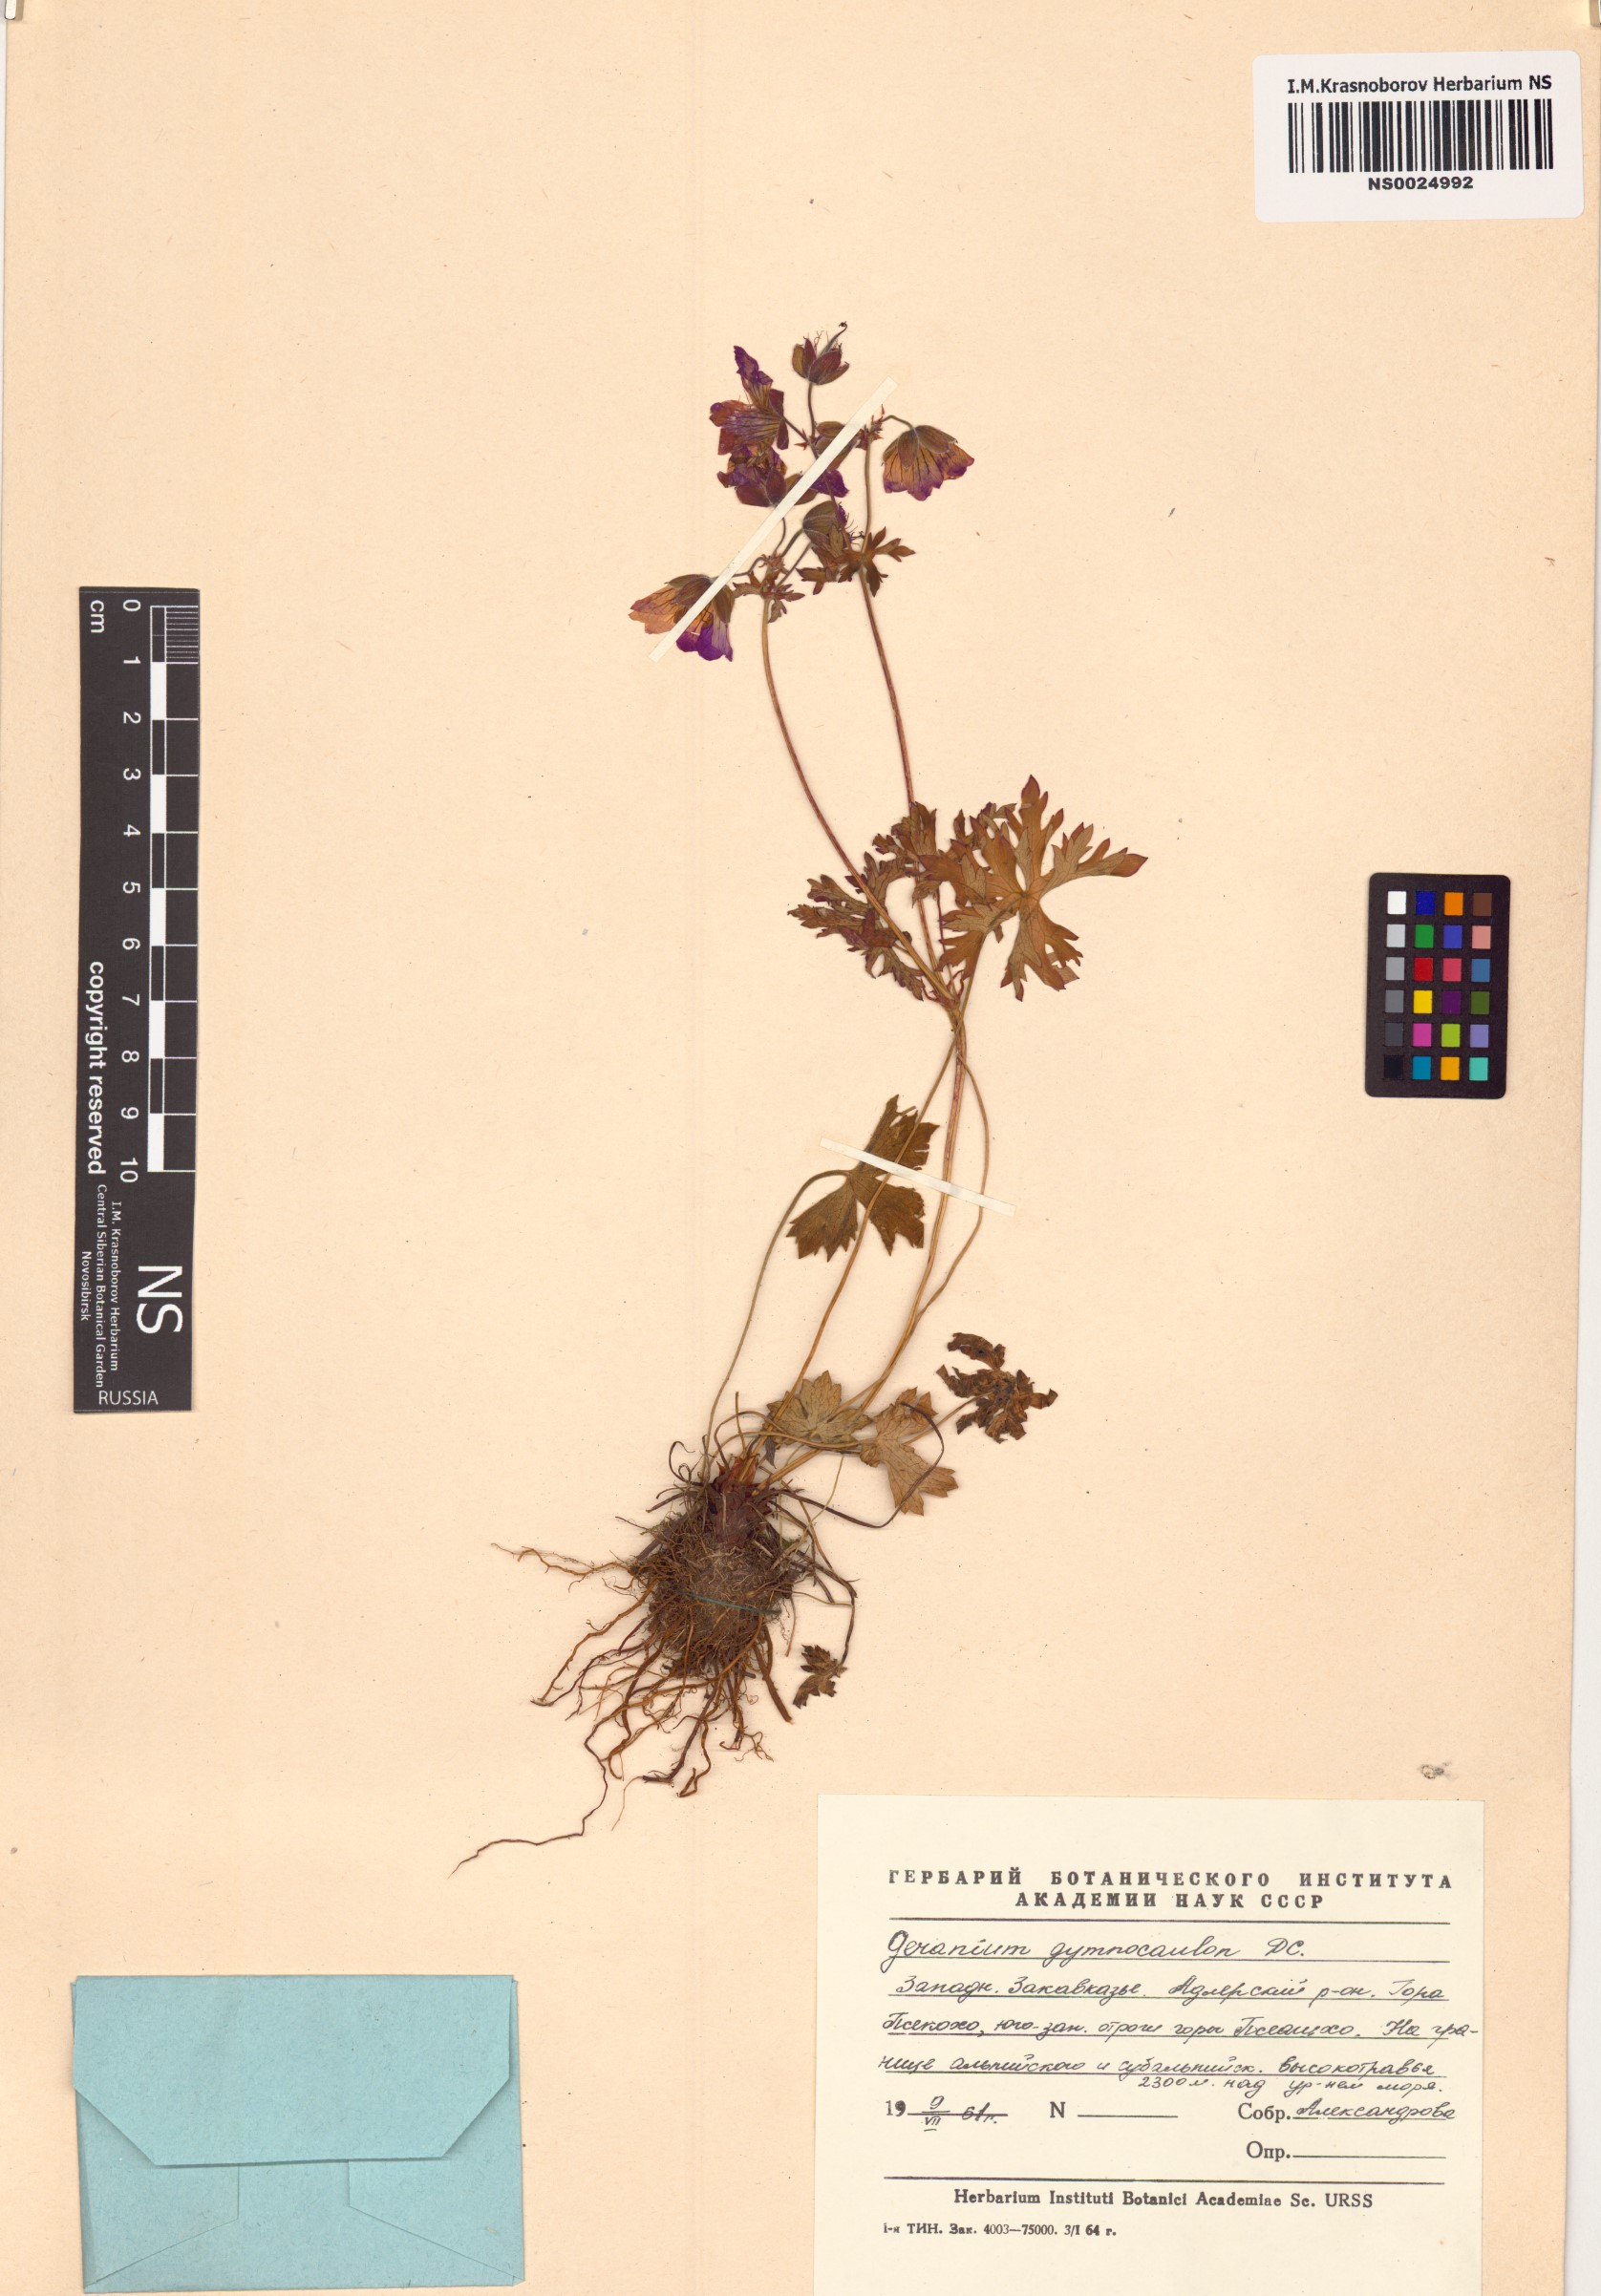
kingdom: Plantae
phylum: Tracheophyta
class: Magnoliopsida
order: Geraniales
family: Geraniaceae
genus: Geranium
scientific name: Geranium gymnocaulon
